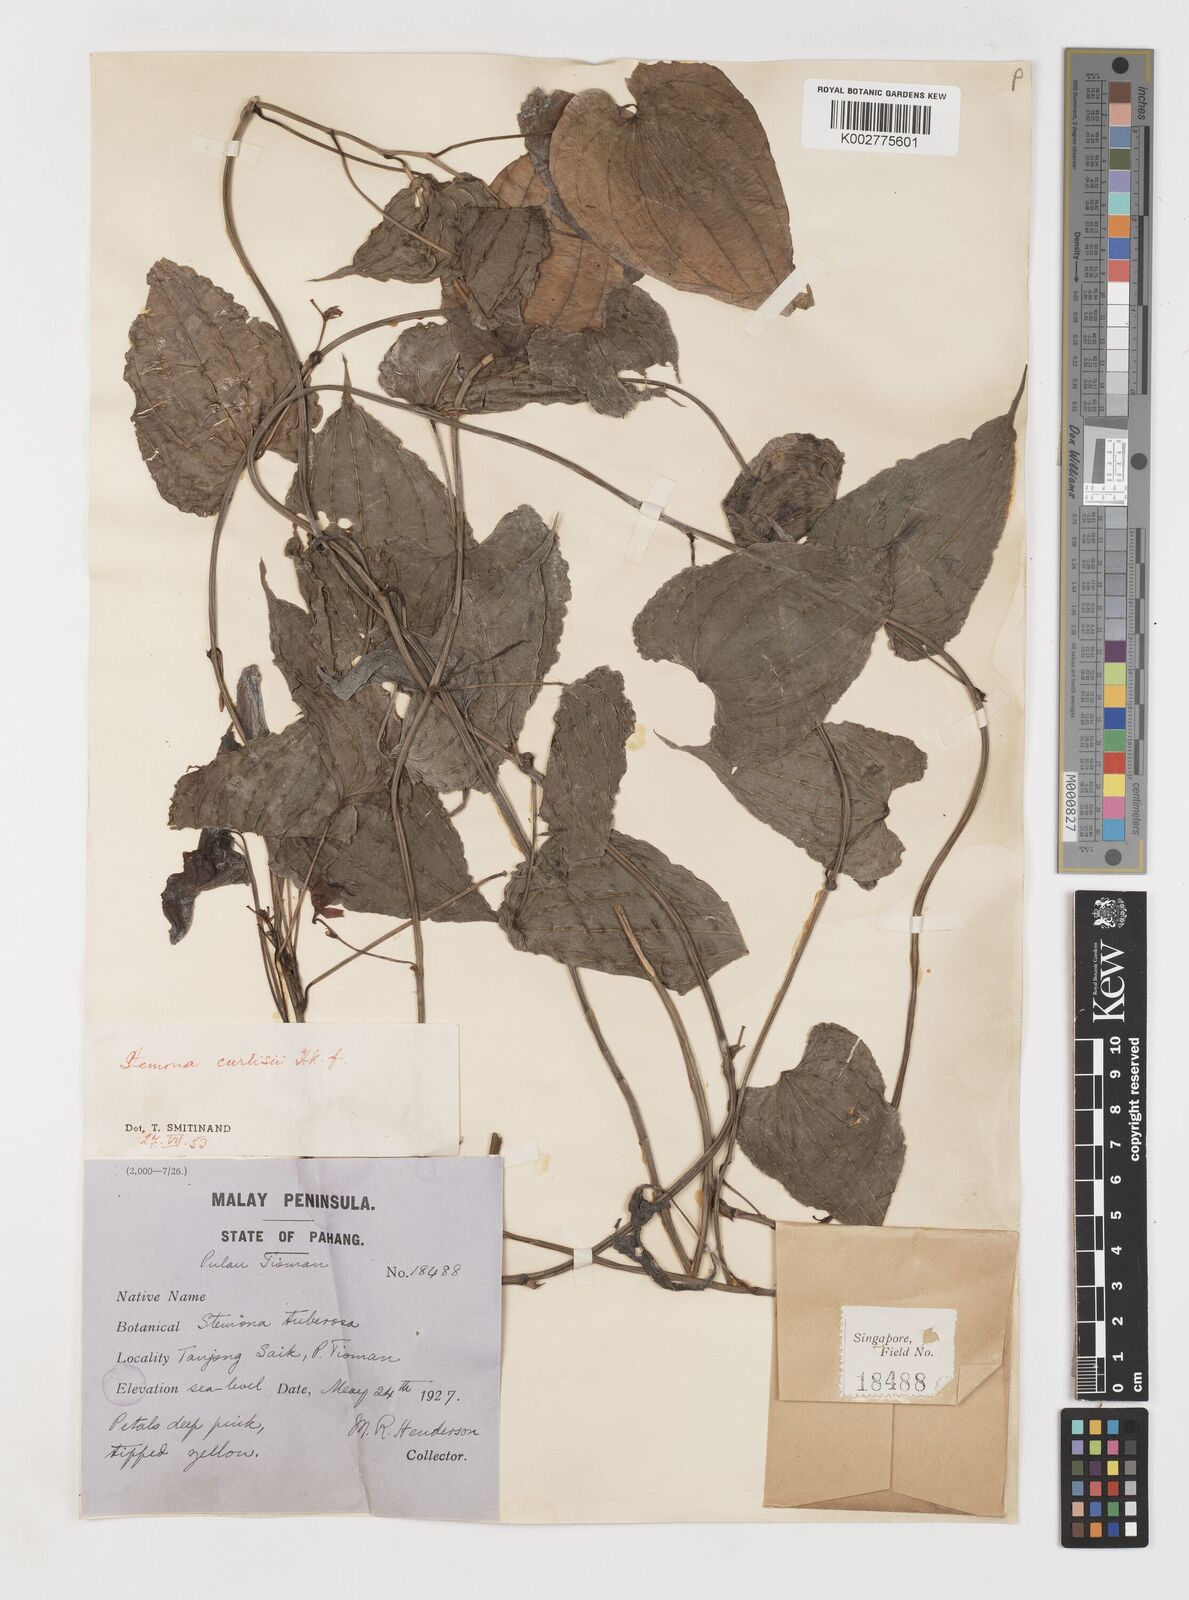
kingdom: Plantae
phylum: Tracheophyta
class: Liliopsida
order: Pandanales
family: Stemonaceae
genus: Stemona
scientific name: Stemona tuberosa
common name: Stemona
